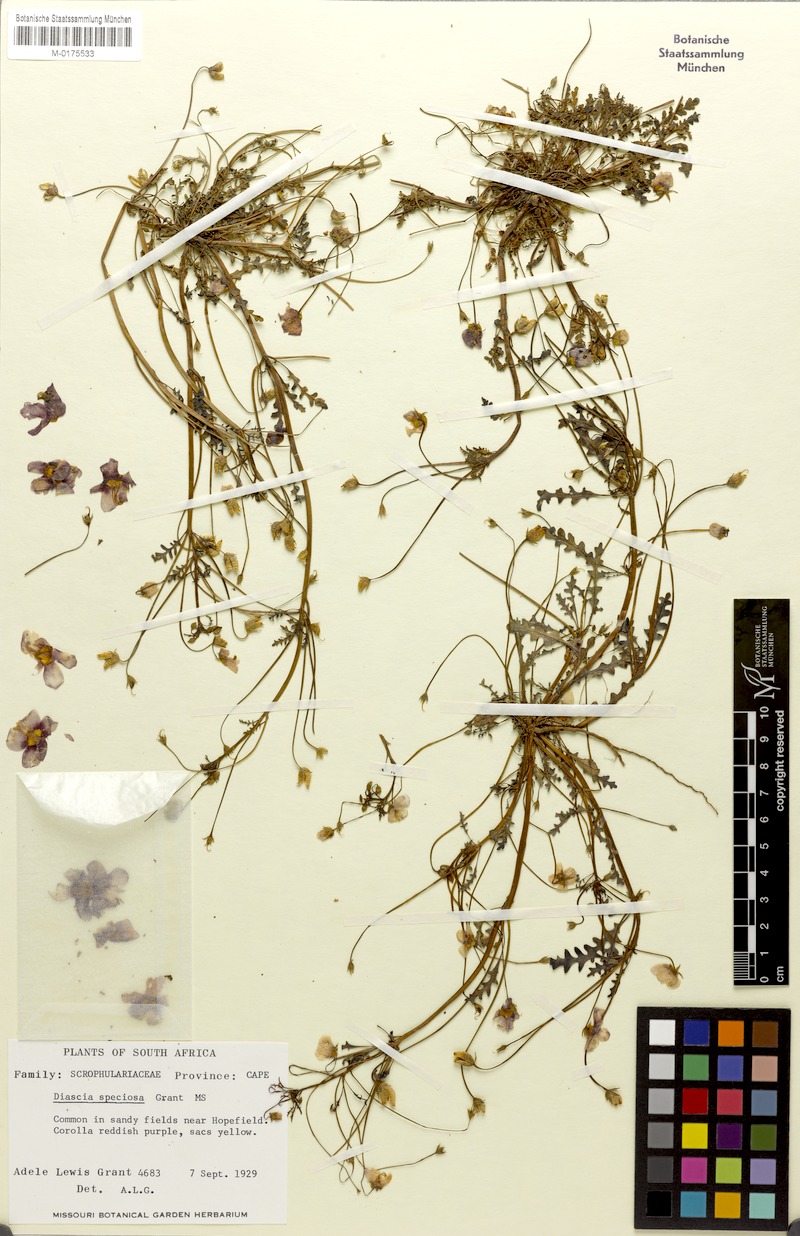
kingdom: Plantae
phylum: Tracheophyta
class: Magnoliopsida
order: Lamiales
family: Scrophulariaceae
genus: Diascia
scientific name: Diascia speciosa
